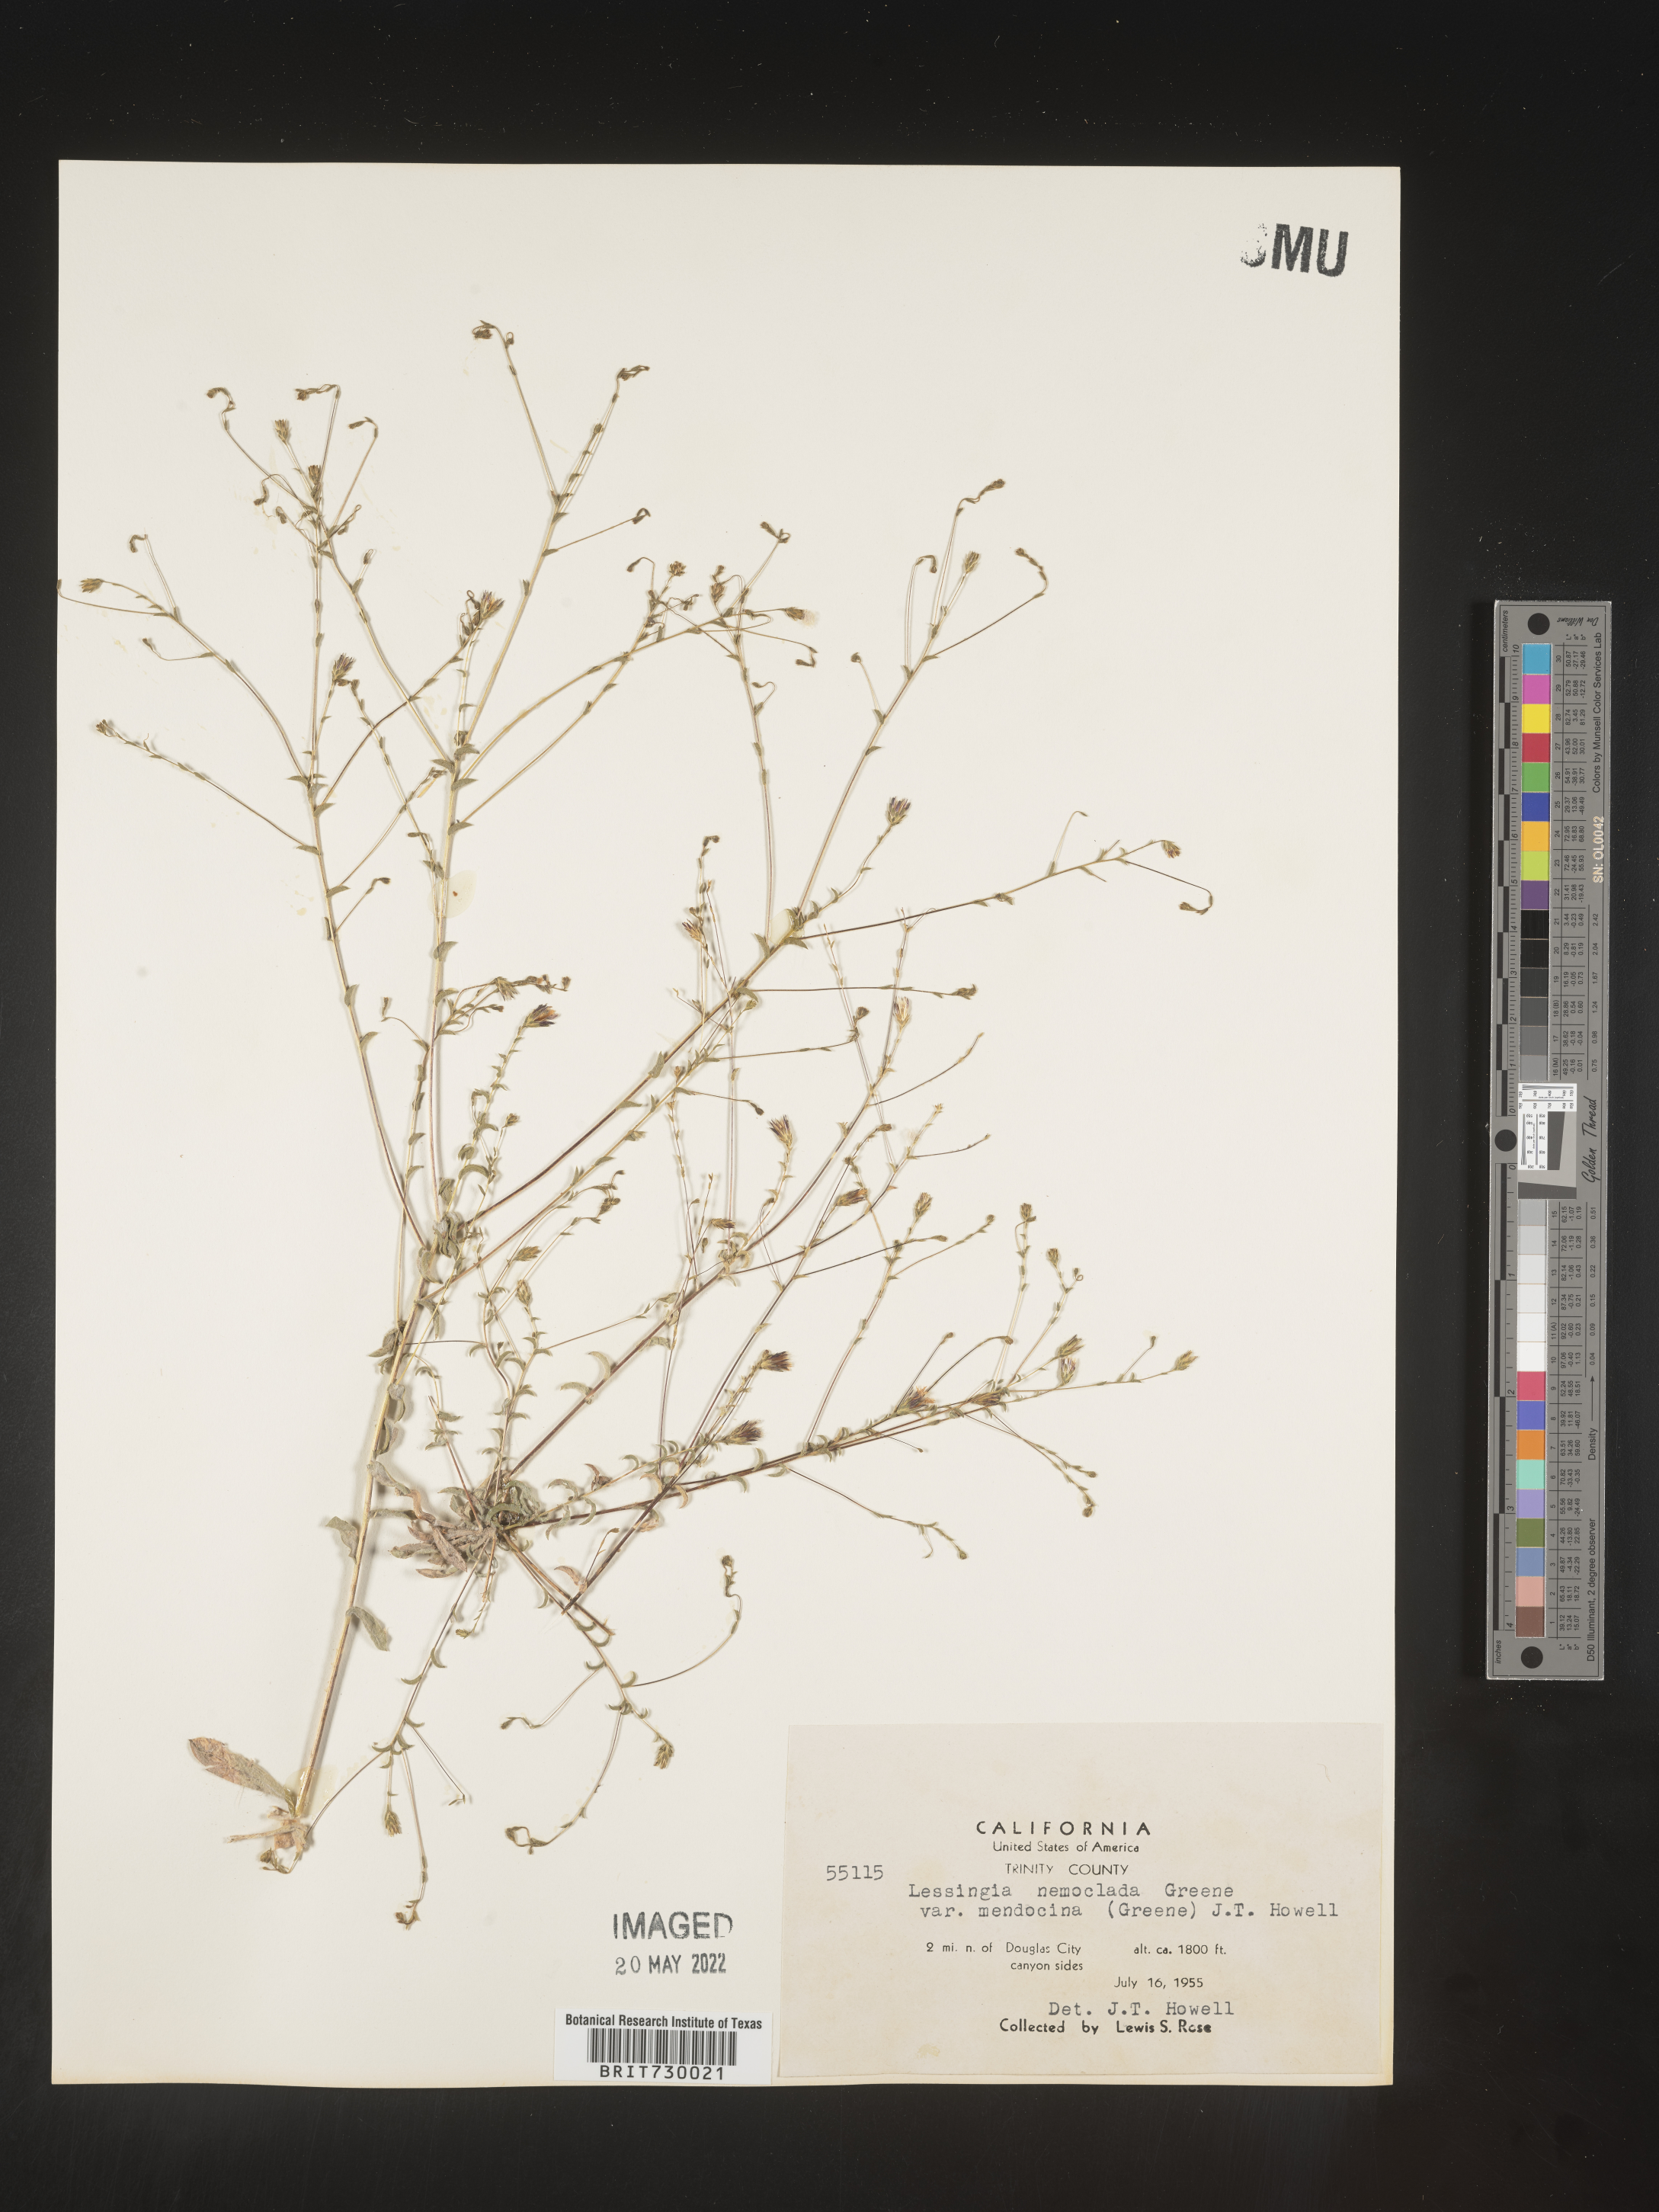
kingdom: Plantae
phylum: Tracheophyta
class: Magnoliopsida
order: Asterales
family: Asteraceae
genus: Lessingia
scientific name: Lessingia
